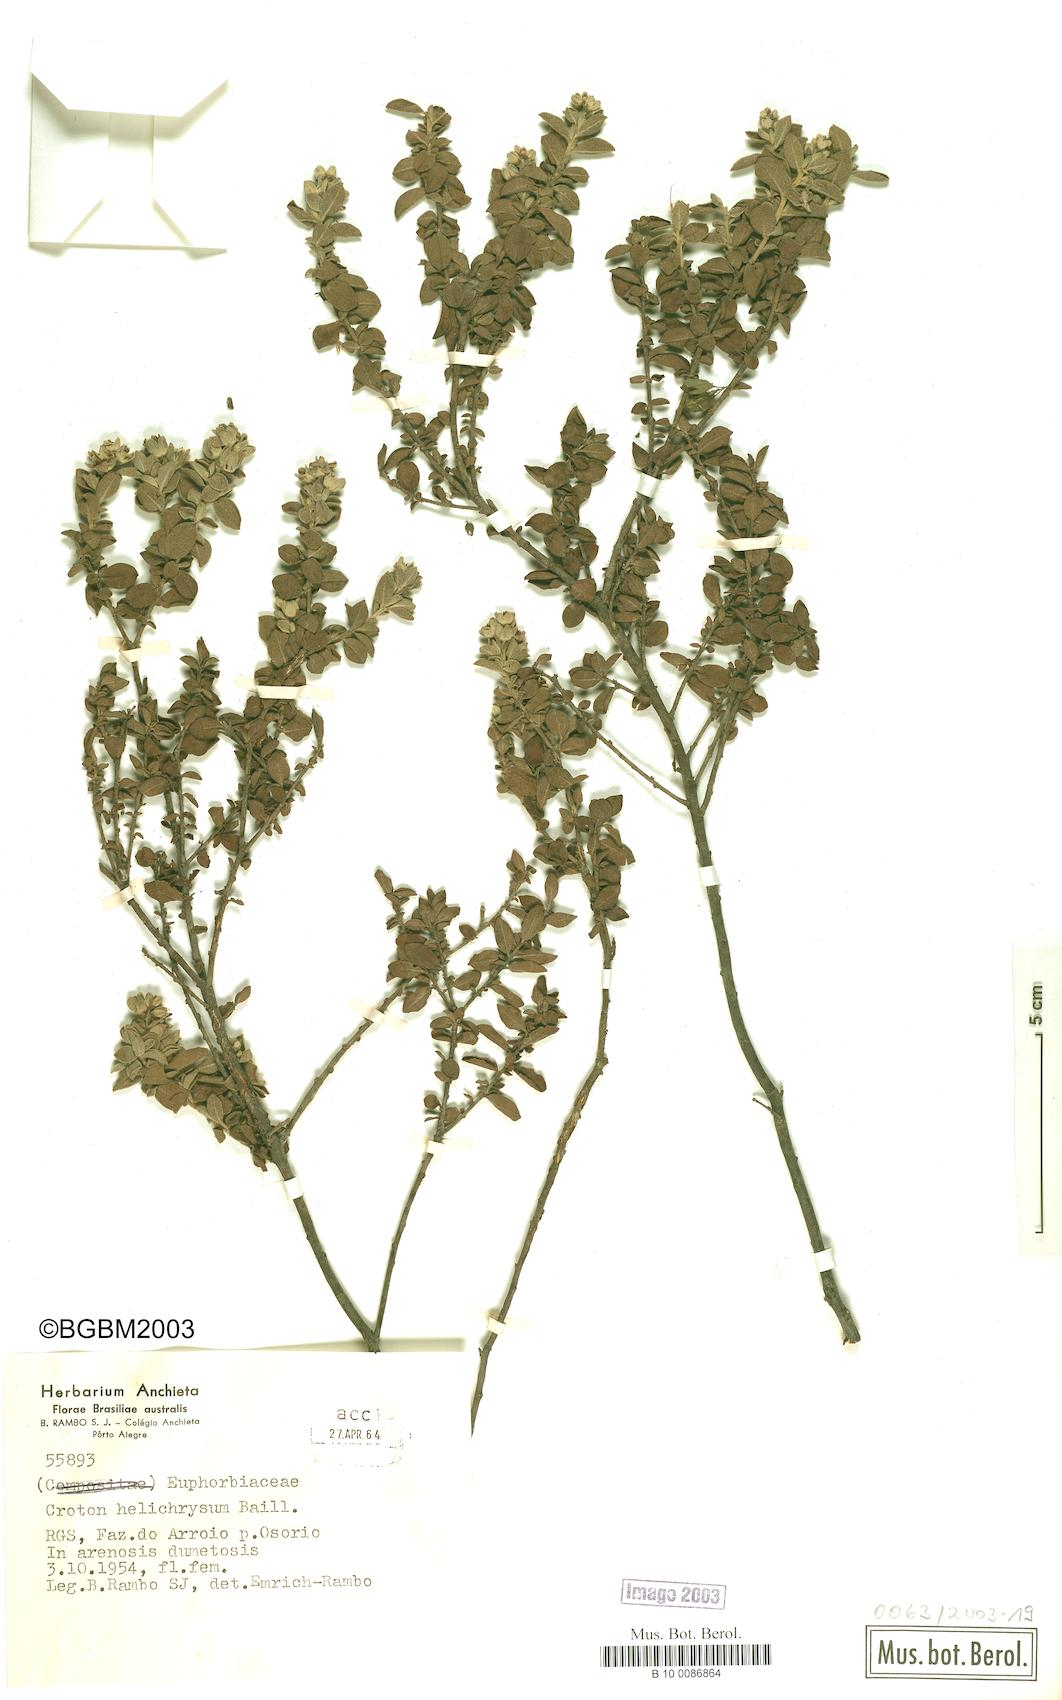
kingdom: Plantae
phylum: Tracheophyta
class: Magnoliopsida
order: Malpighiales
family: Euphorbiaceae
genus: Croton
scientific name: Croton helichrysum
